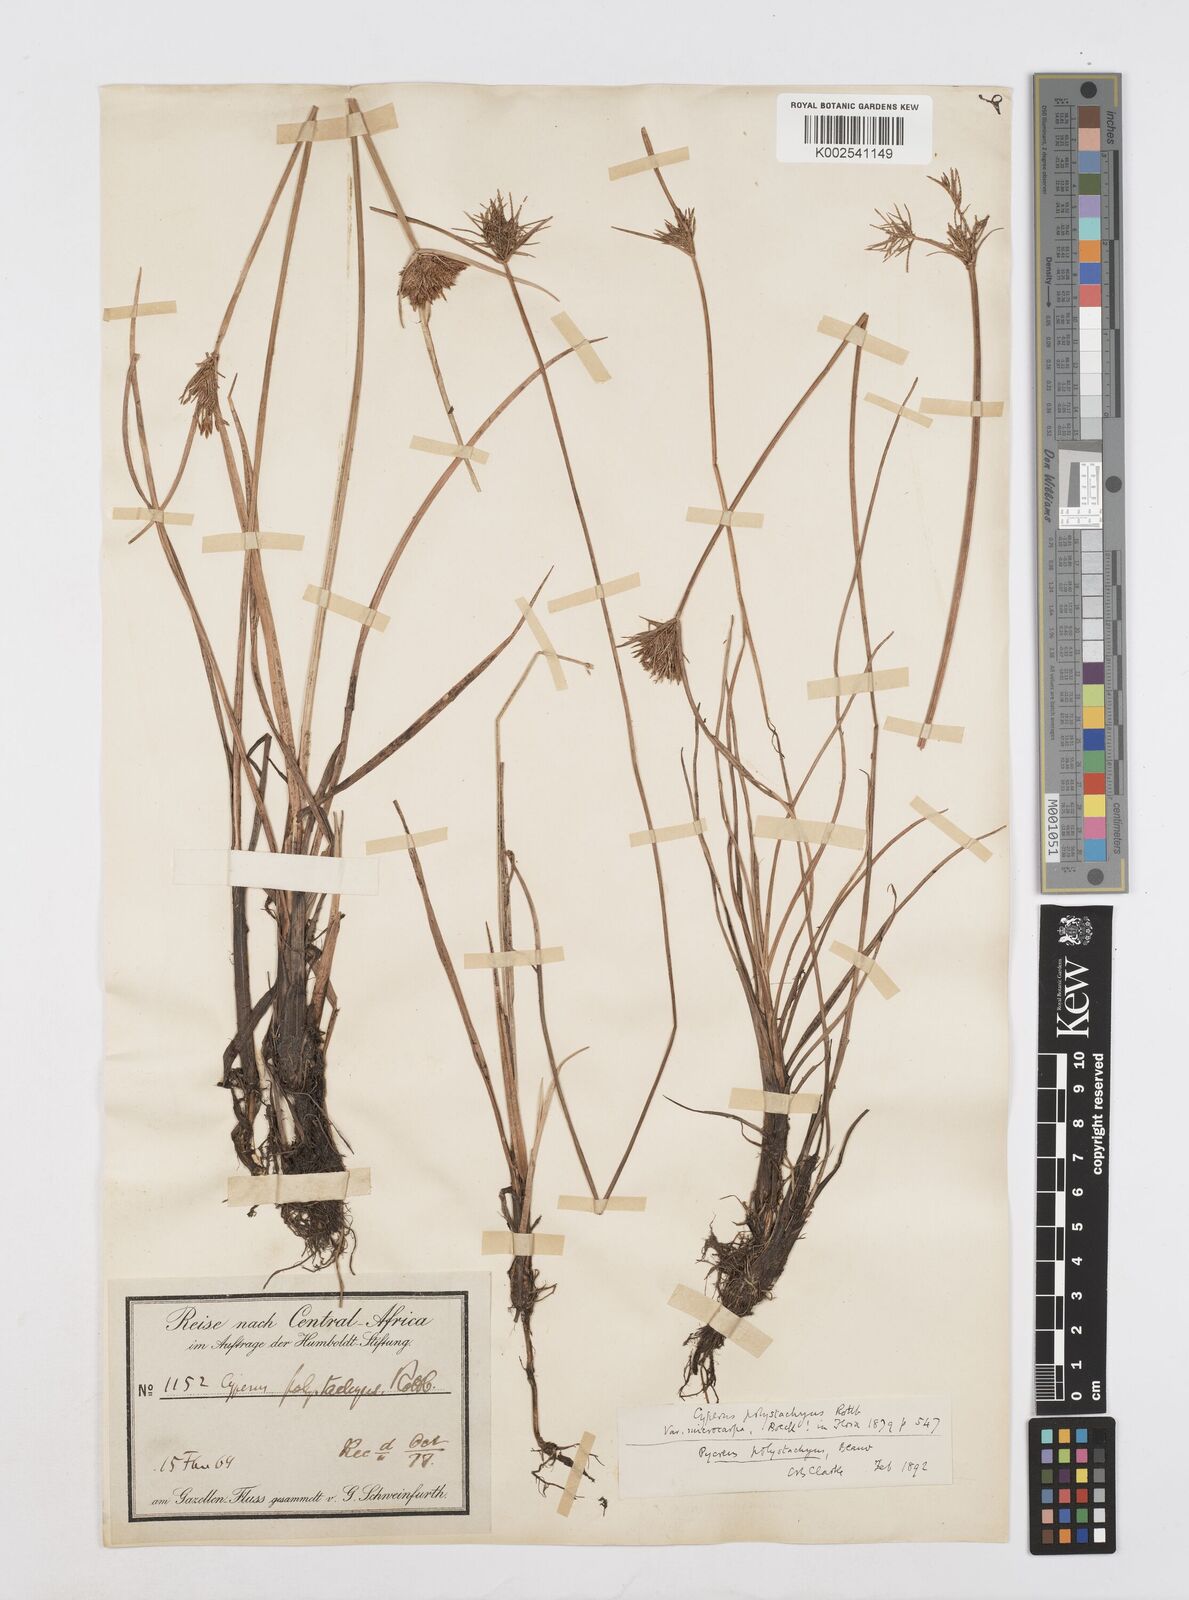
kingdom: Plantae
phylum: Tracheophyta
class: Liliopsida
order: Poales
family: Cyperaceae
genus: Cyperus
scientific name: Cyperus polystachyos
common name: Bunchy flat sedge
